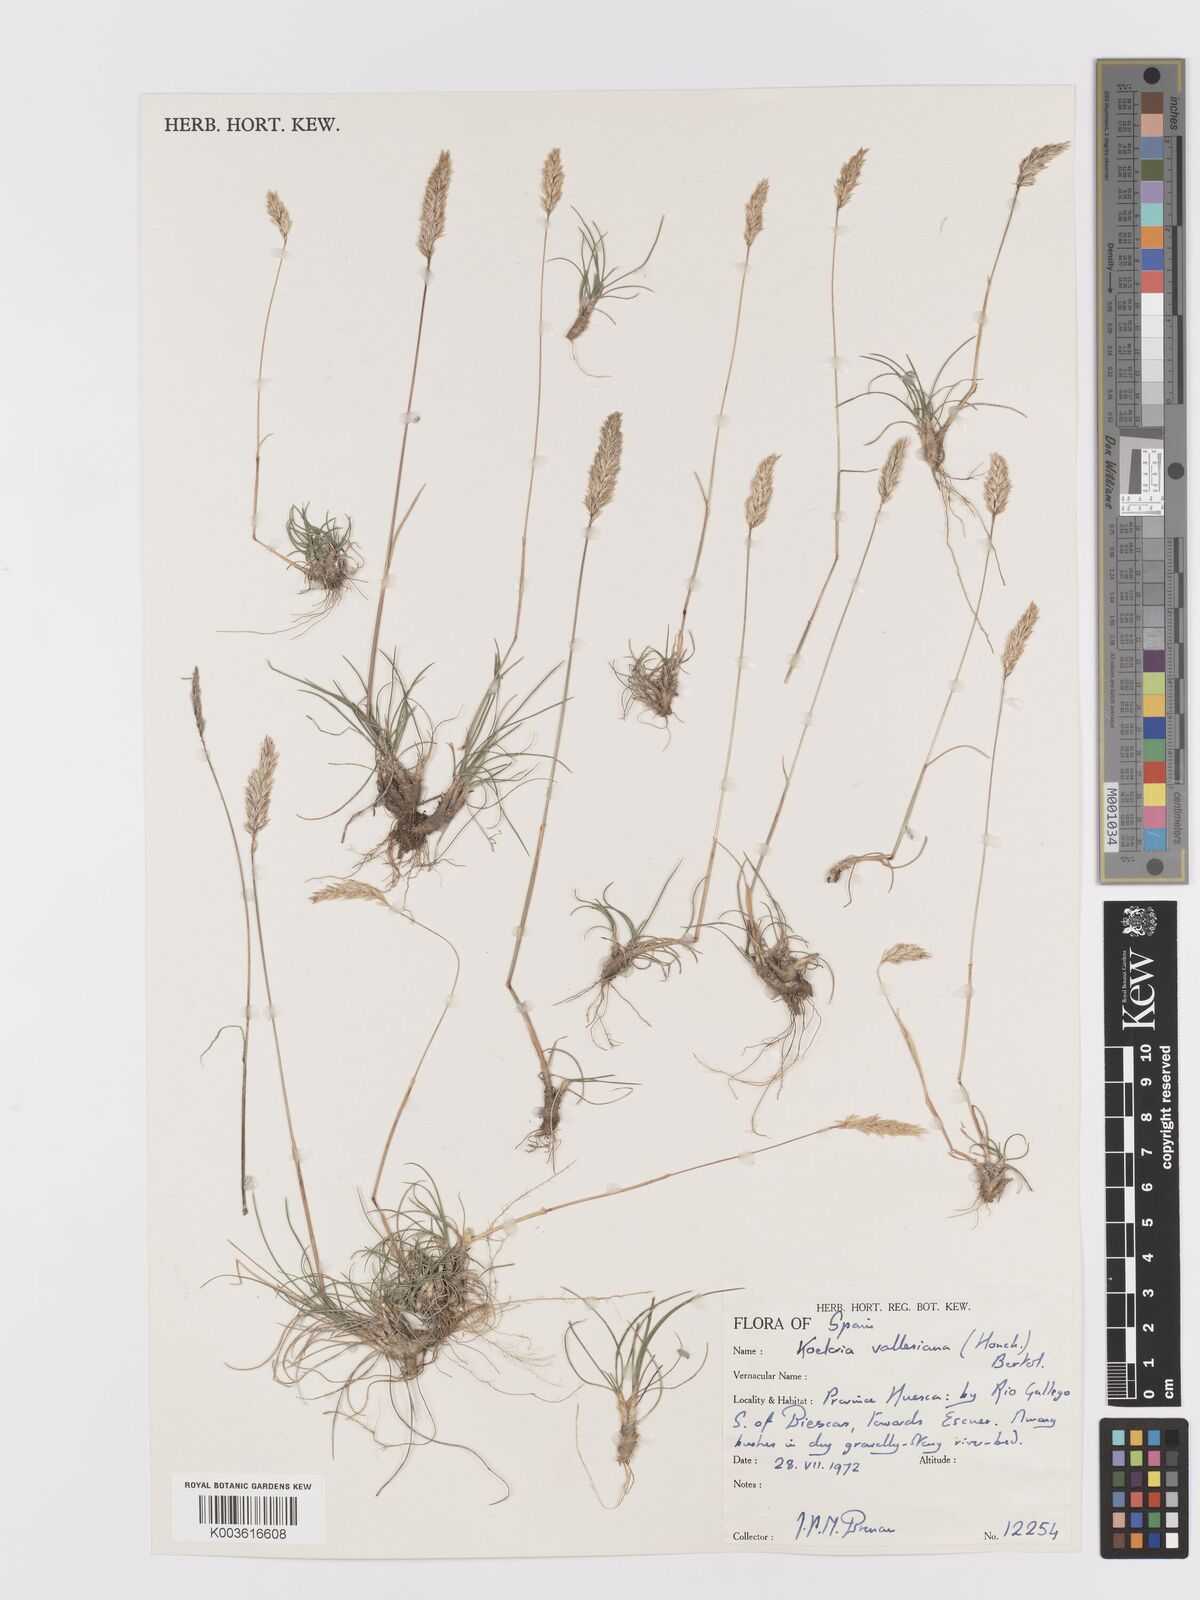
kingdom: Plantae
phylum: Tracheophyta
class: Liliopsida
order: Poales
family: Poaceae
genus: Koeleria
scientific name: Koeleria vallesiana
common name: Somerset hair-grass
